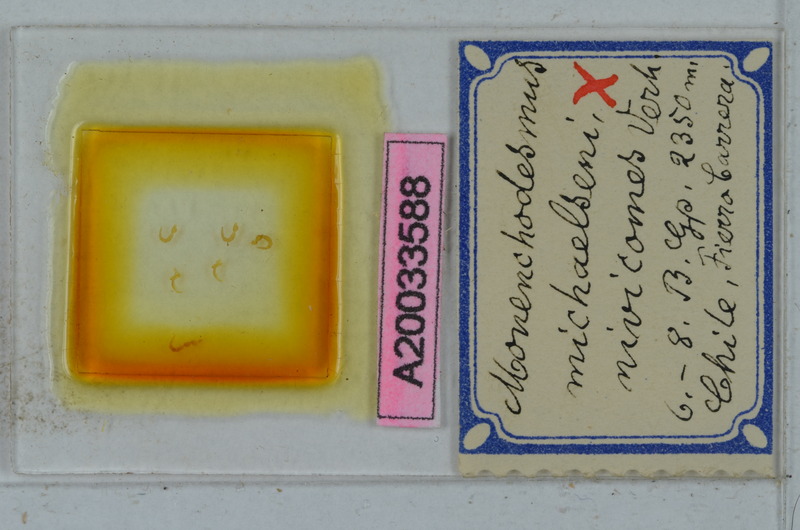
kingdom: Animalia
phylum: Arthropoda
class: Diplopoda
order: Polydesmida
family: Dalodesmidae
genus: Monenchodesmus
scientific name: Monenchodesmus michaelseni
